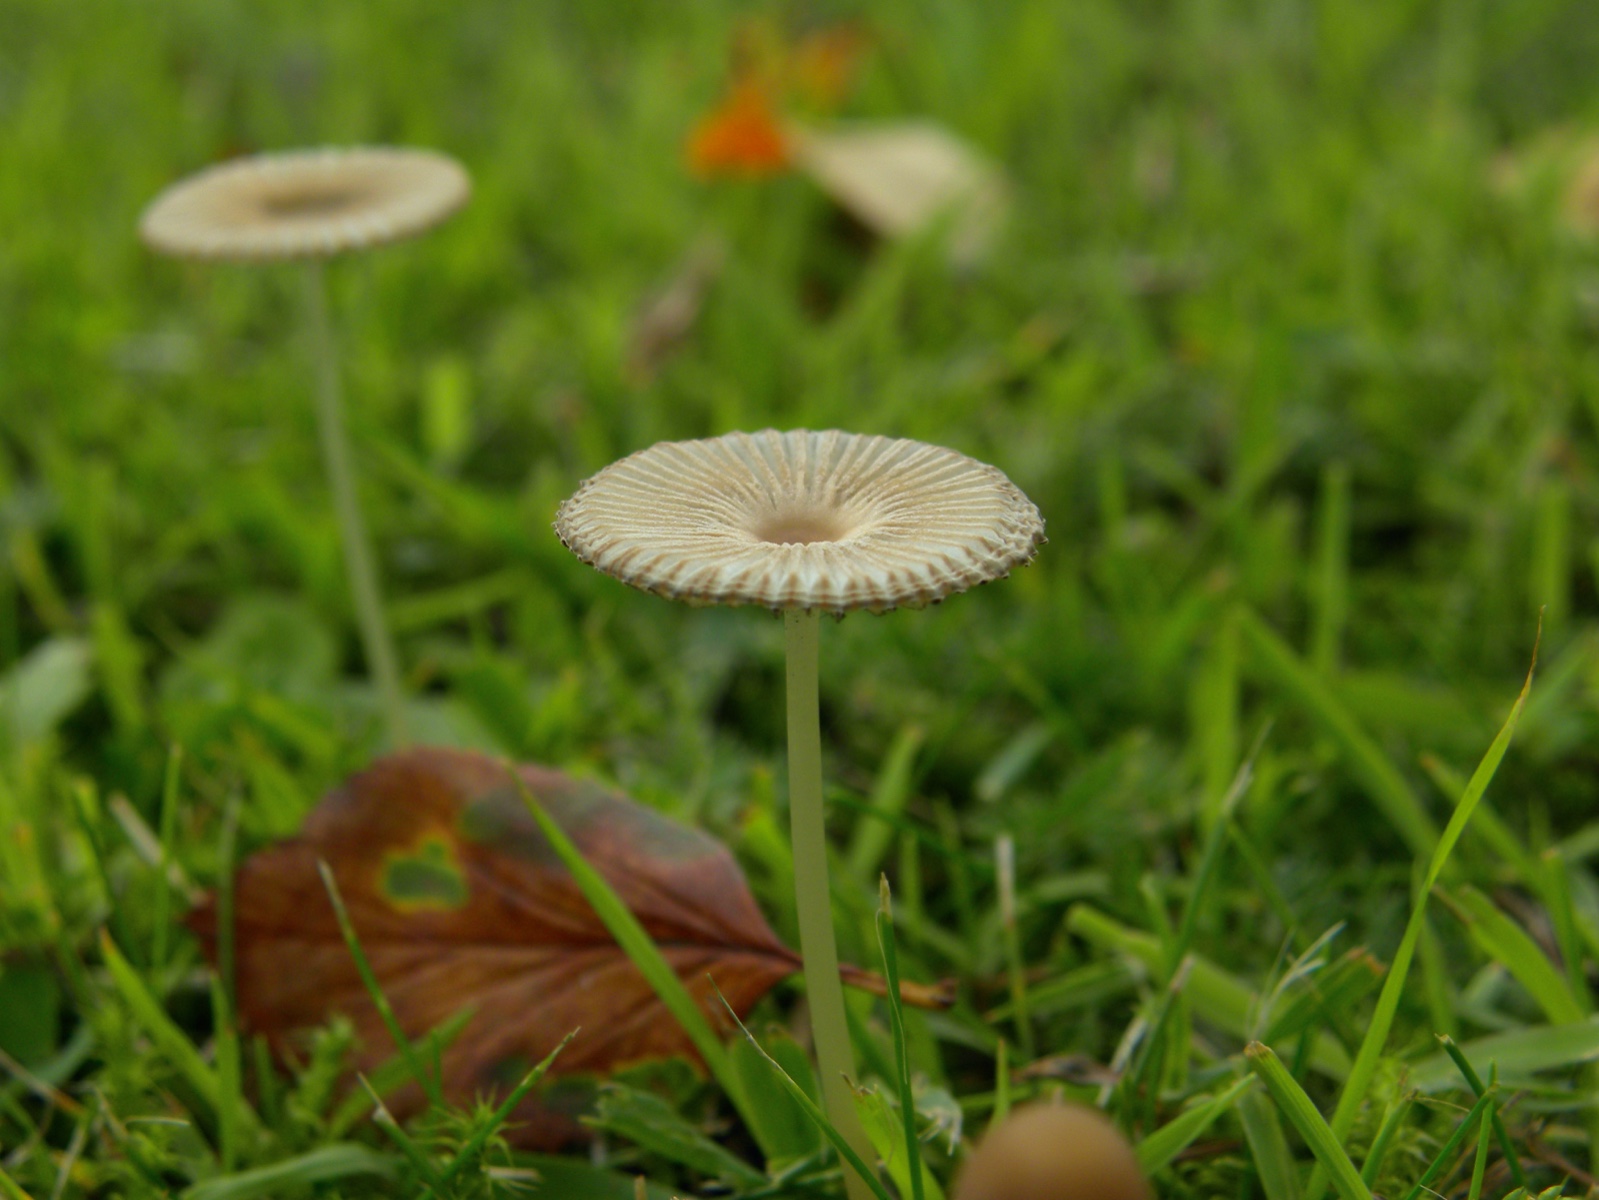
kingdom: Fungi
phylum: Basidiomycota
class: Agaricomycetes
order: Agaricales
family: Psathyrellaceae
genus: Parasola
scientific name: Parasola
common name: hjulhat
